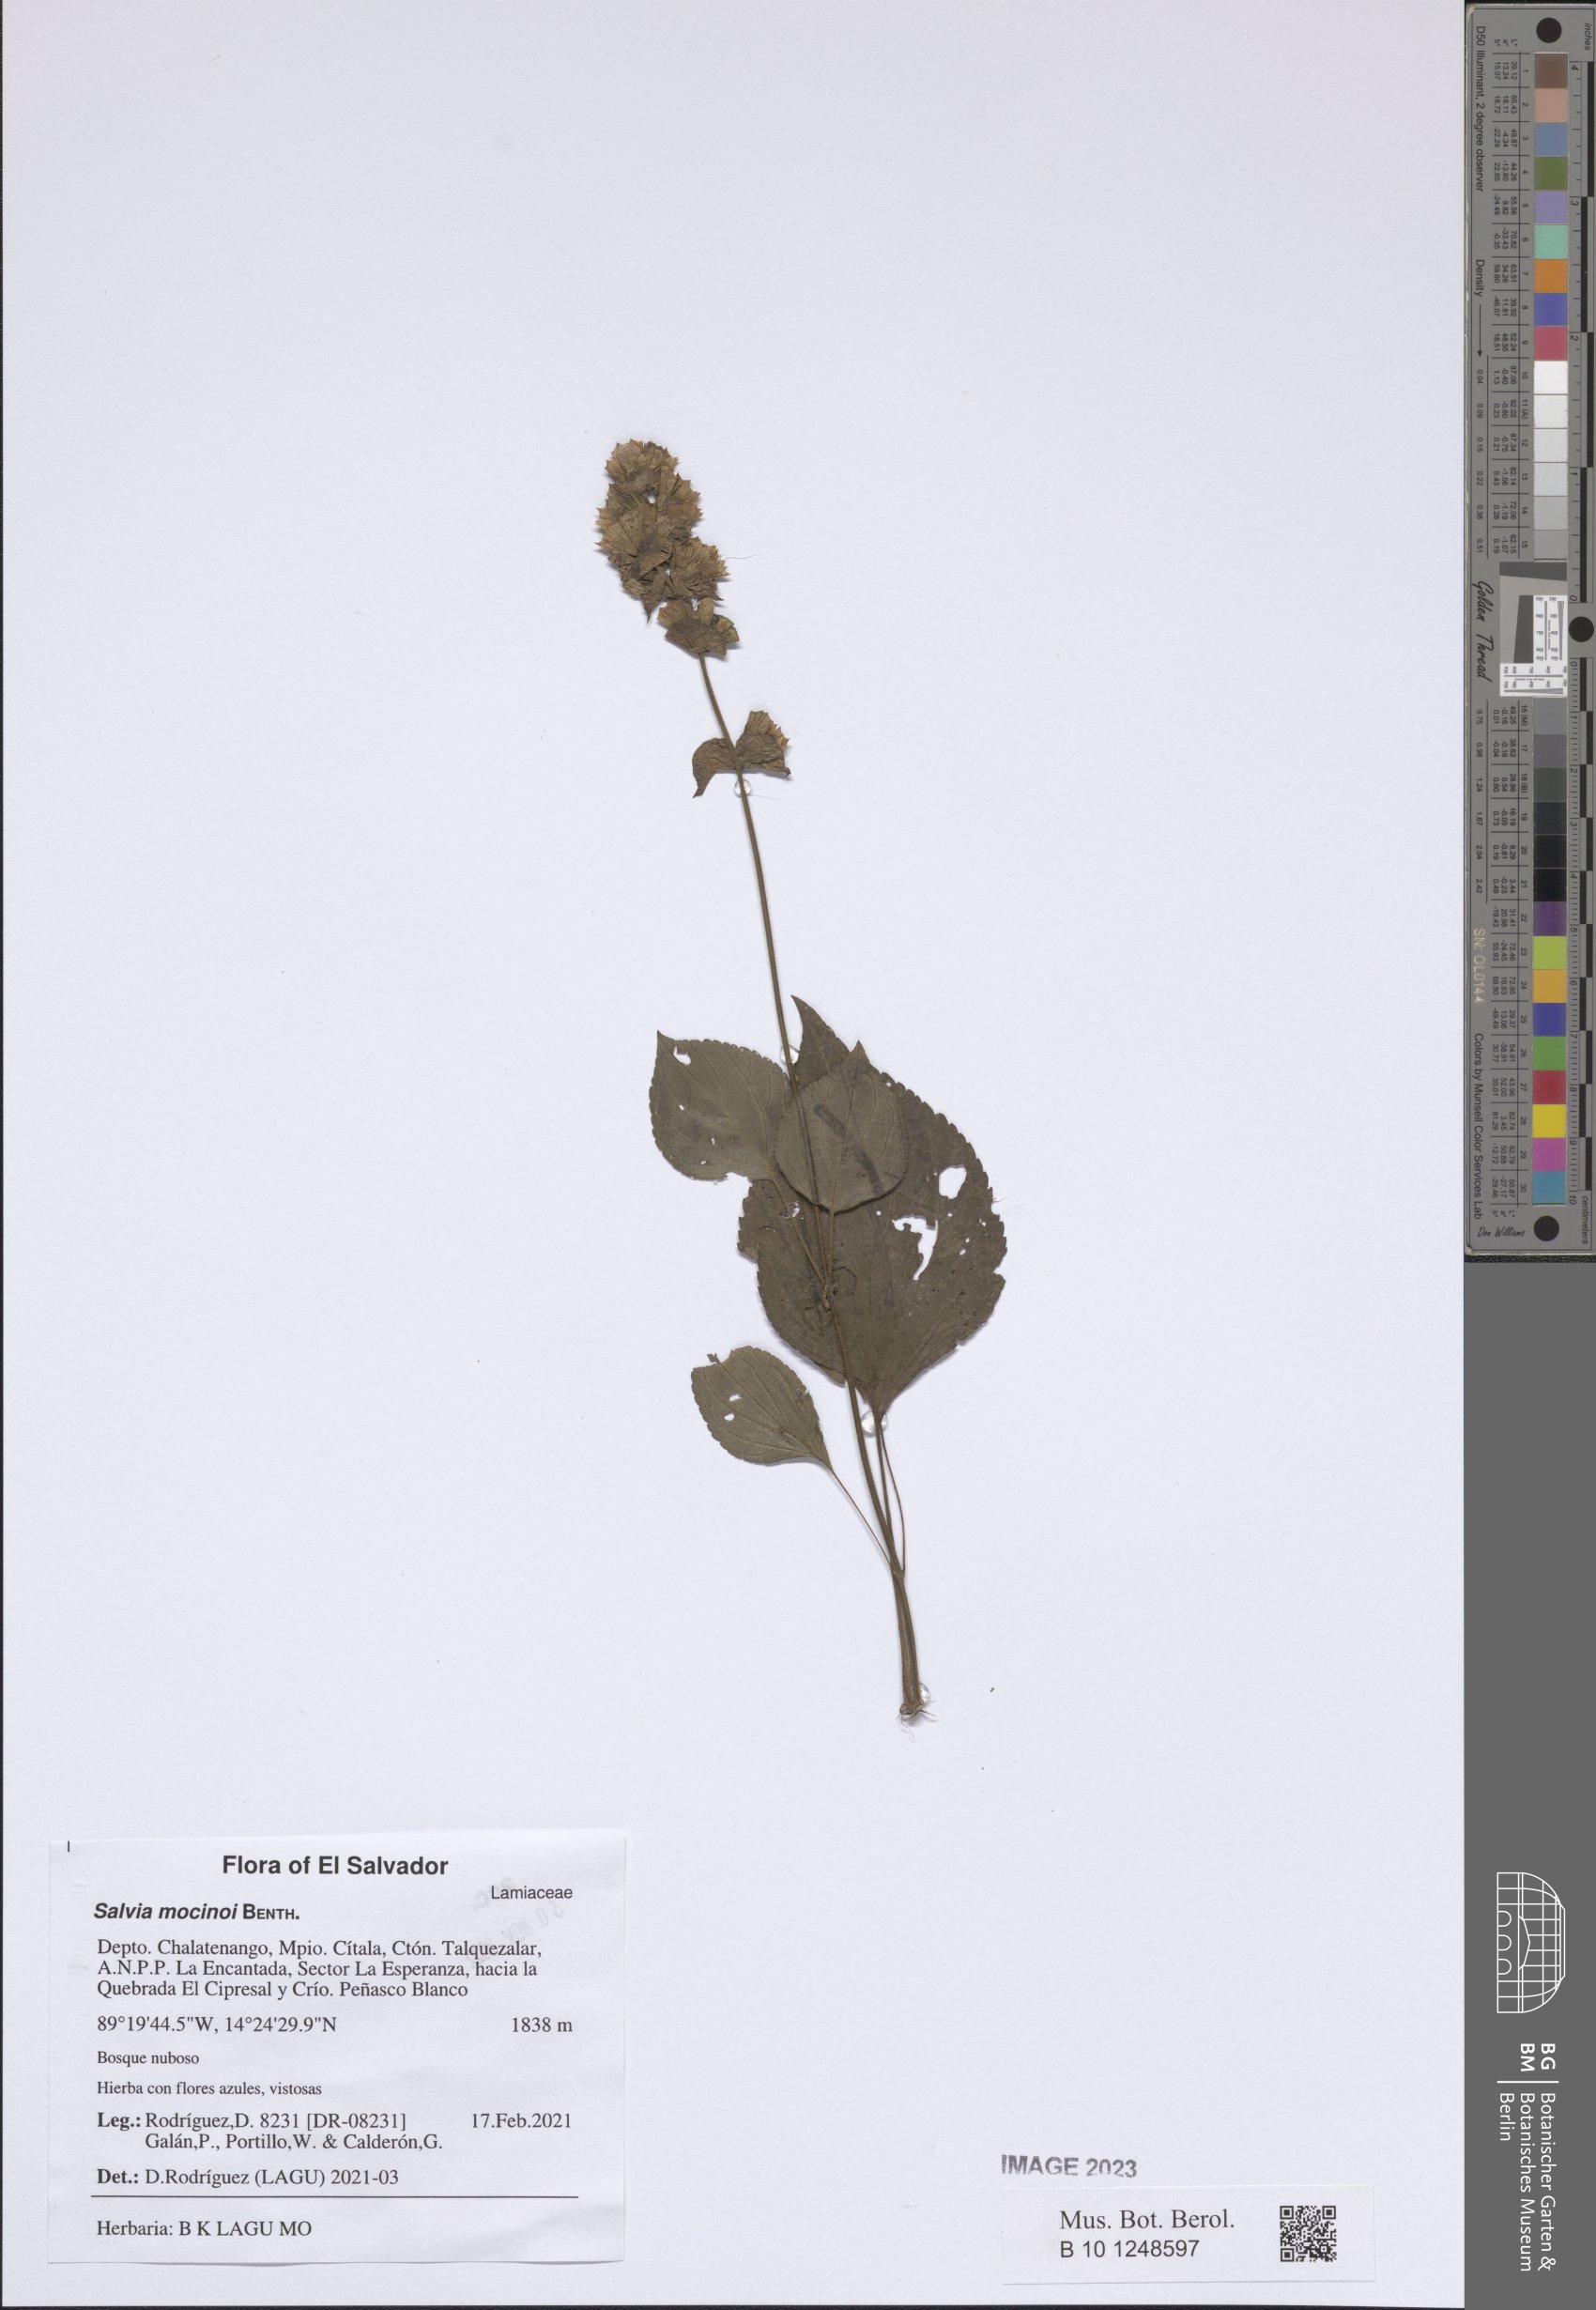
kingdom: Plantae
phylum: Tracheophyta
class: Magnoliopsida
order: Lamiales
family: Lamiaceae
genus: Salvia
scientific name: Salvia mocinoi
